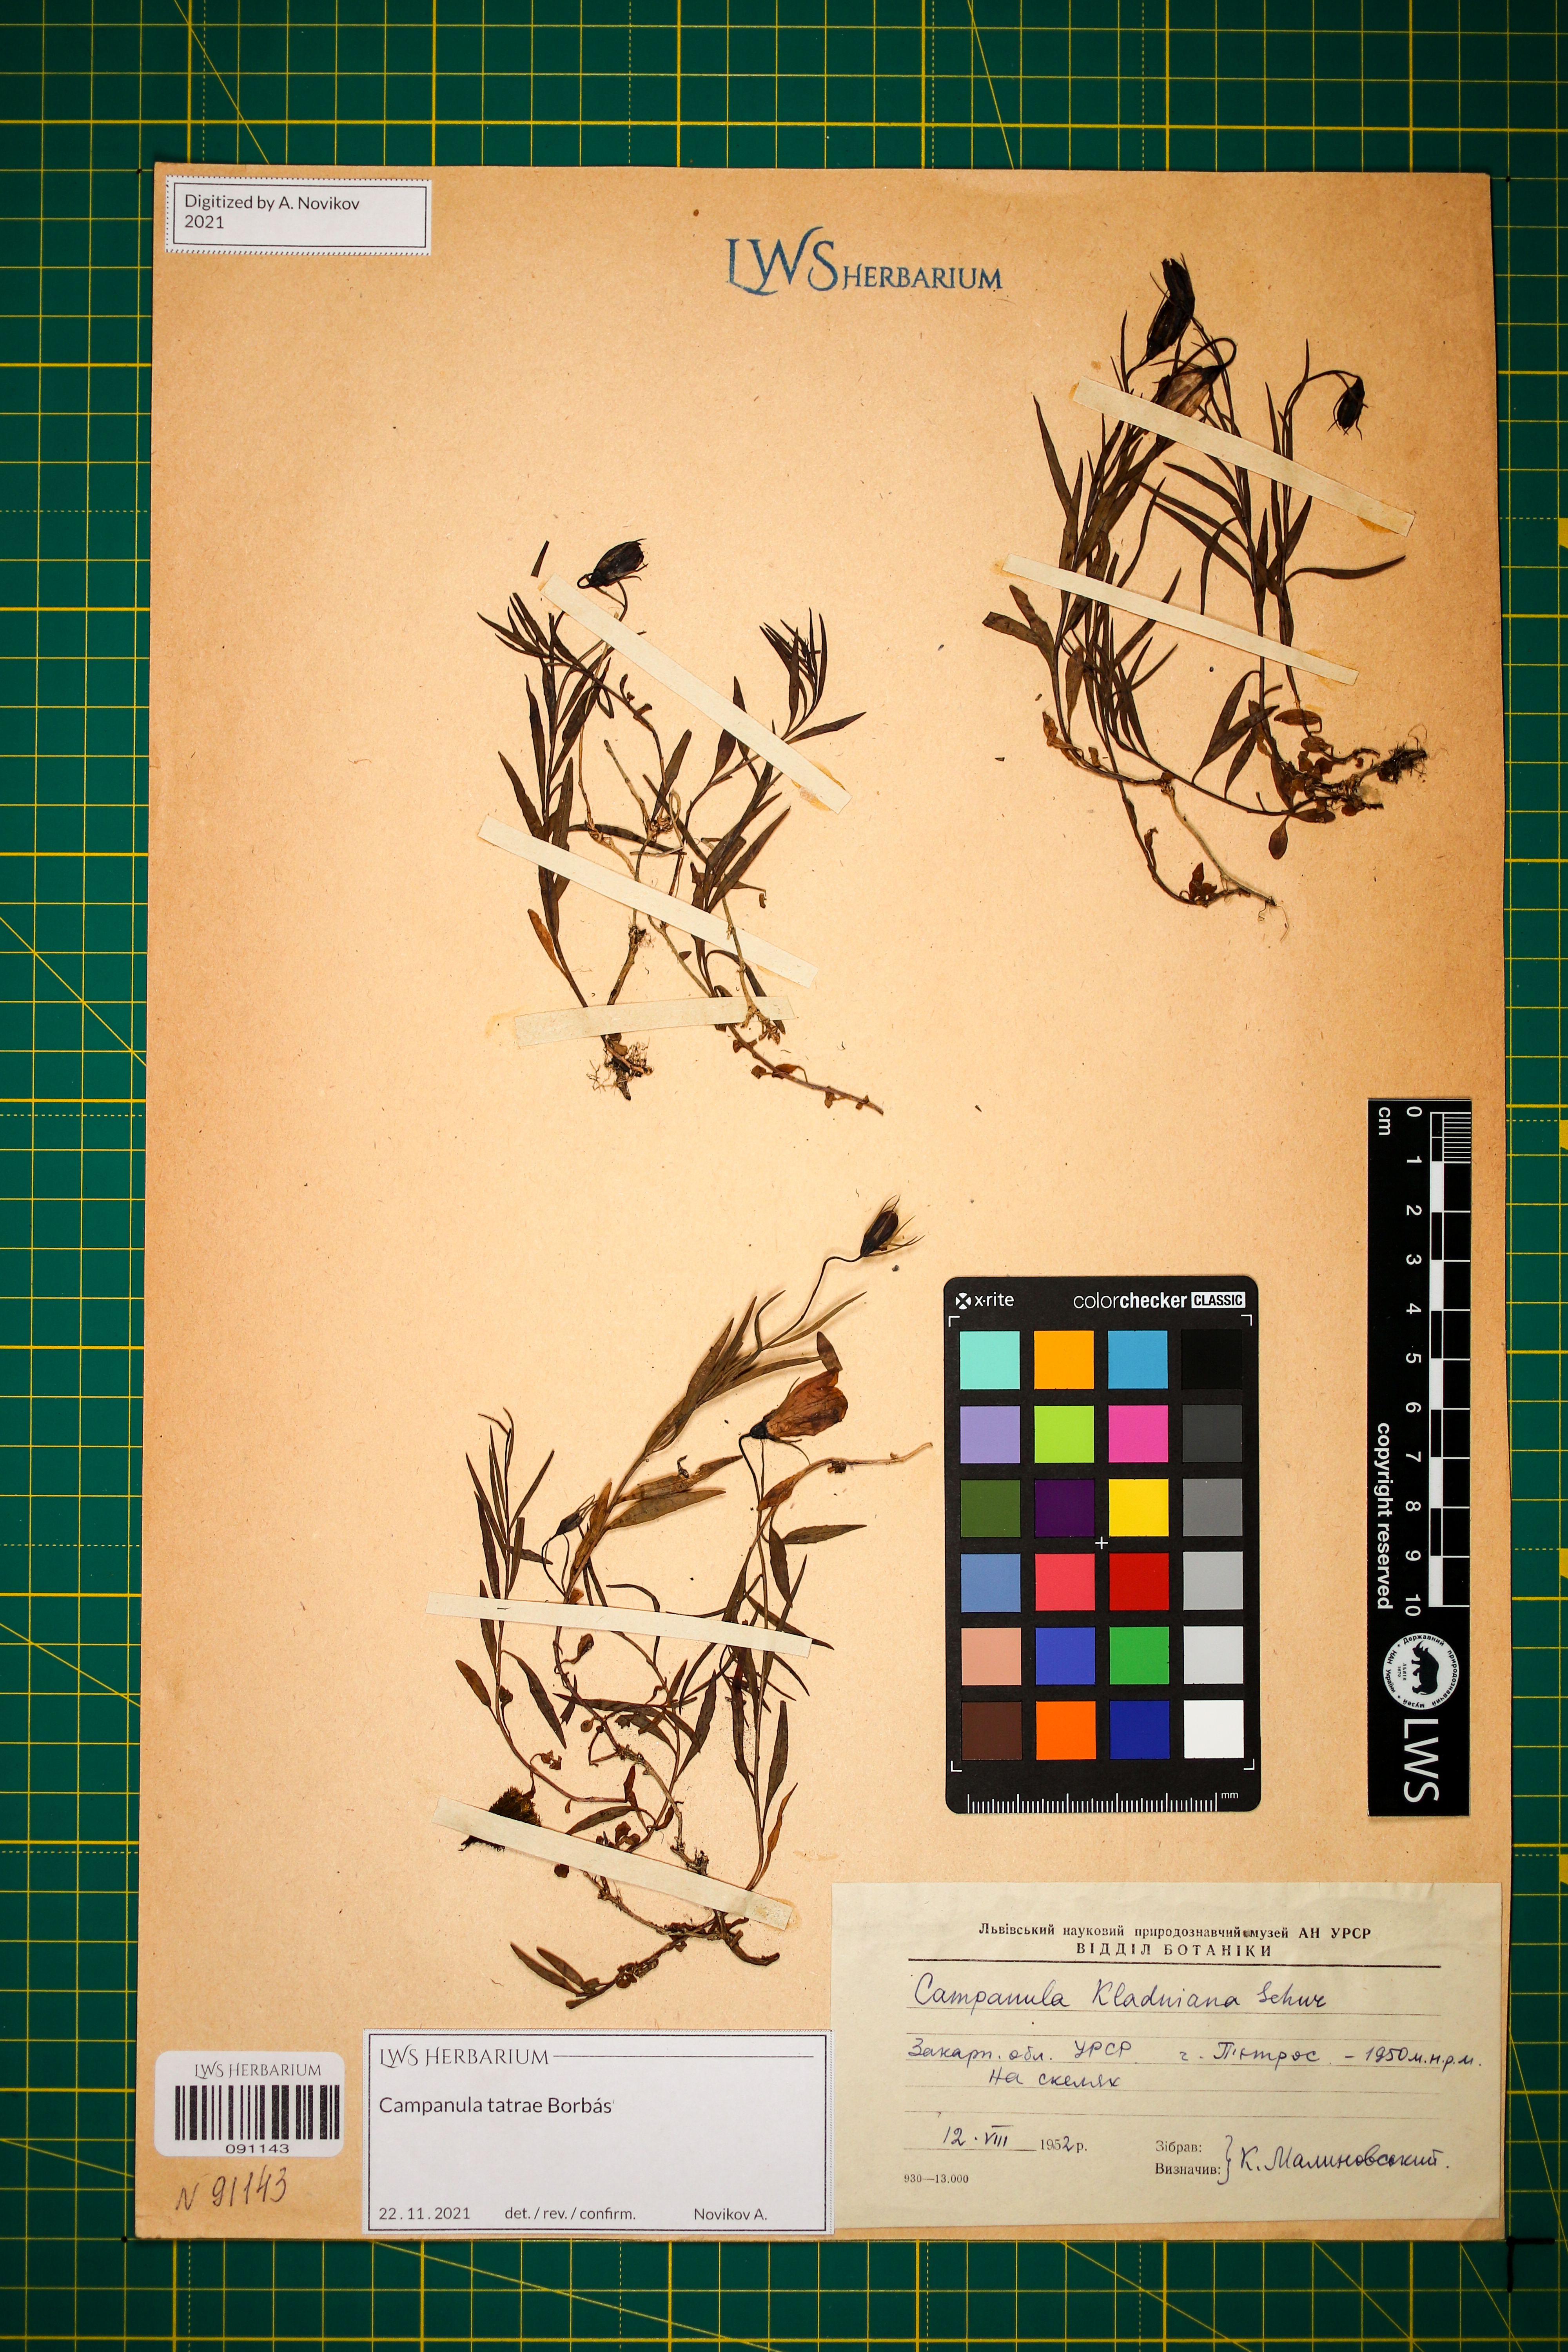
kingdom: Plantae
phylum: Tracheophyta
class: Magnoliopsida
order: Asterales
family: Campanulaceae
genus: Campanula
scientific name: Campanula kladniana
